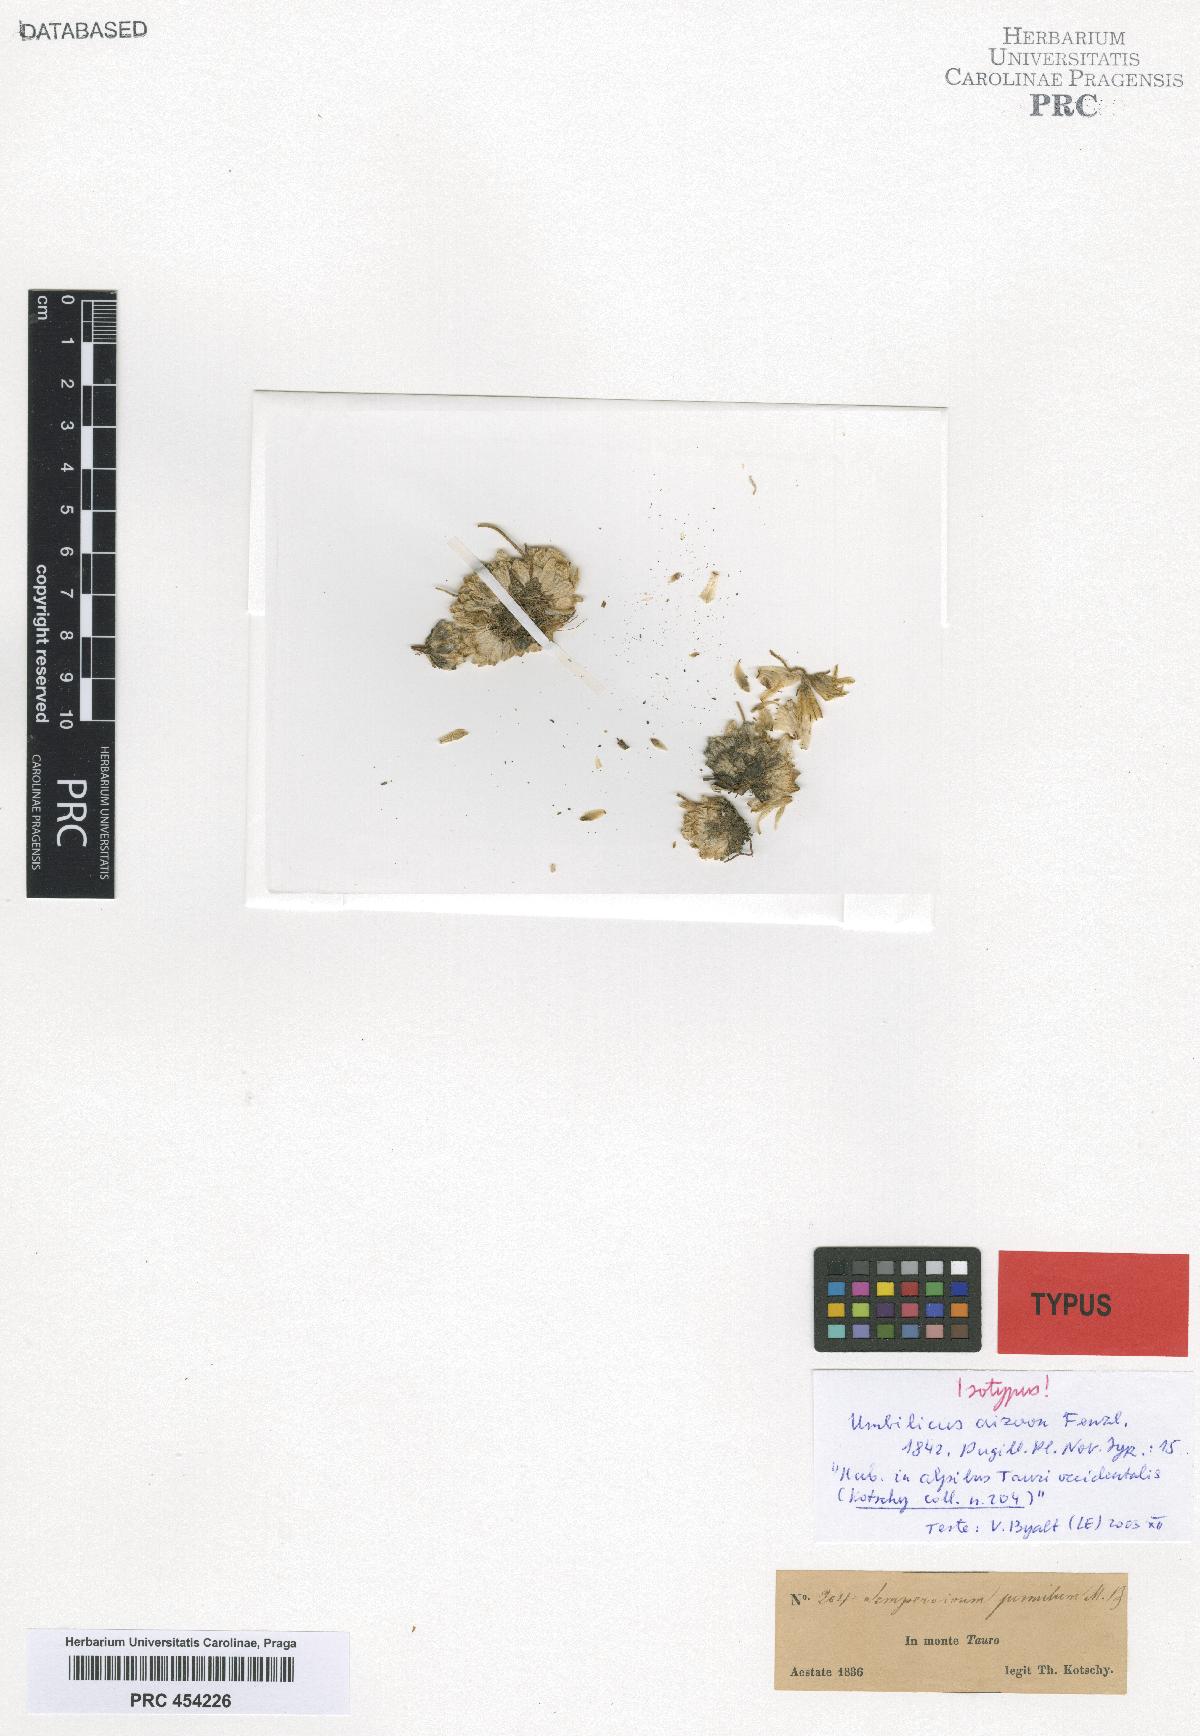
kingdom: Plantae
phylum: Tracheophyta
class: Magnoliopsida
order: Saxifragales
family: Crassulaceae
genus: Prometheum
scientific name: Prometheum aizoon
